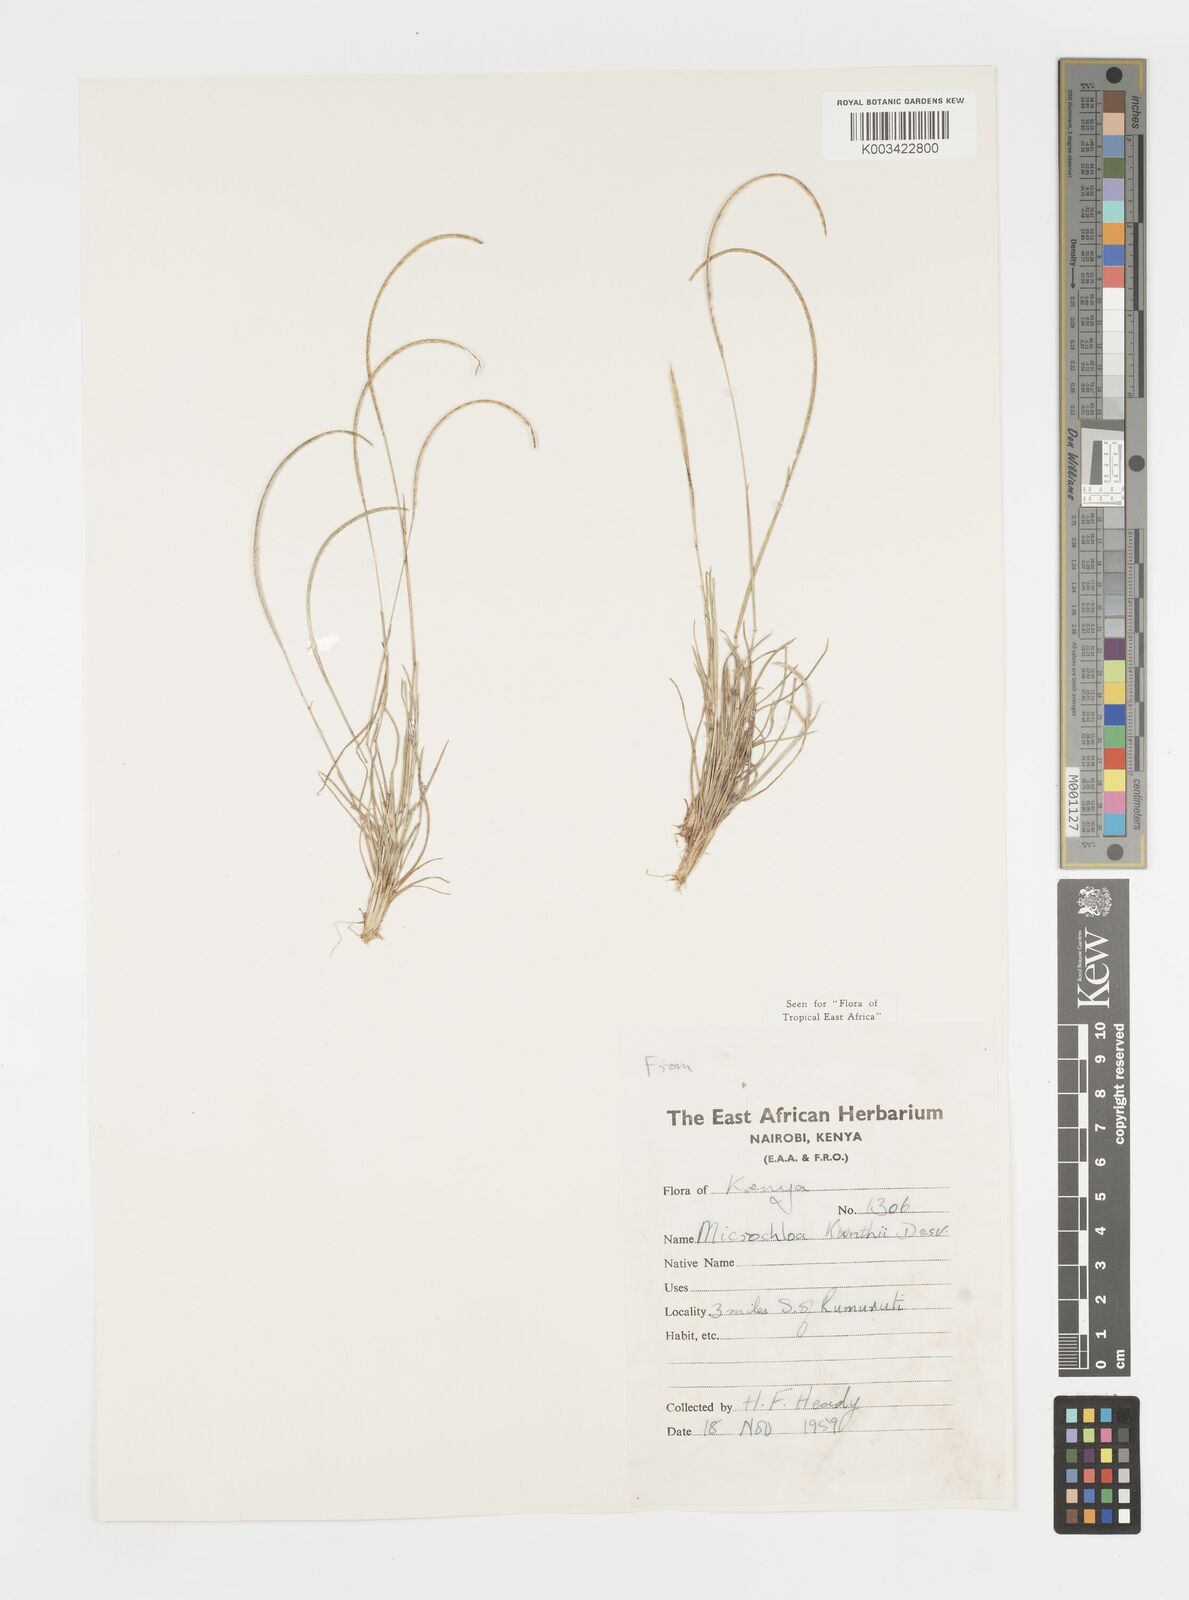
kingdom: Plantae
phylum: Tracheophyta
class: Liliopsida
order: Poales
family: Poaceae
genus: Microchloa
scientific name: Microchloa kunthii
